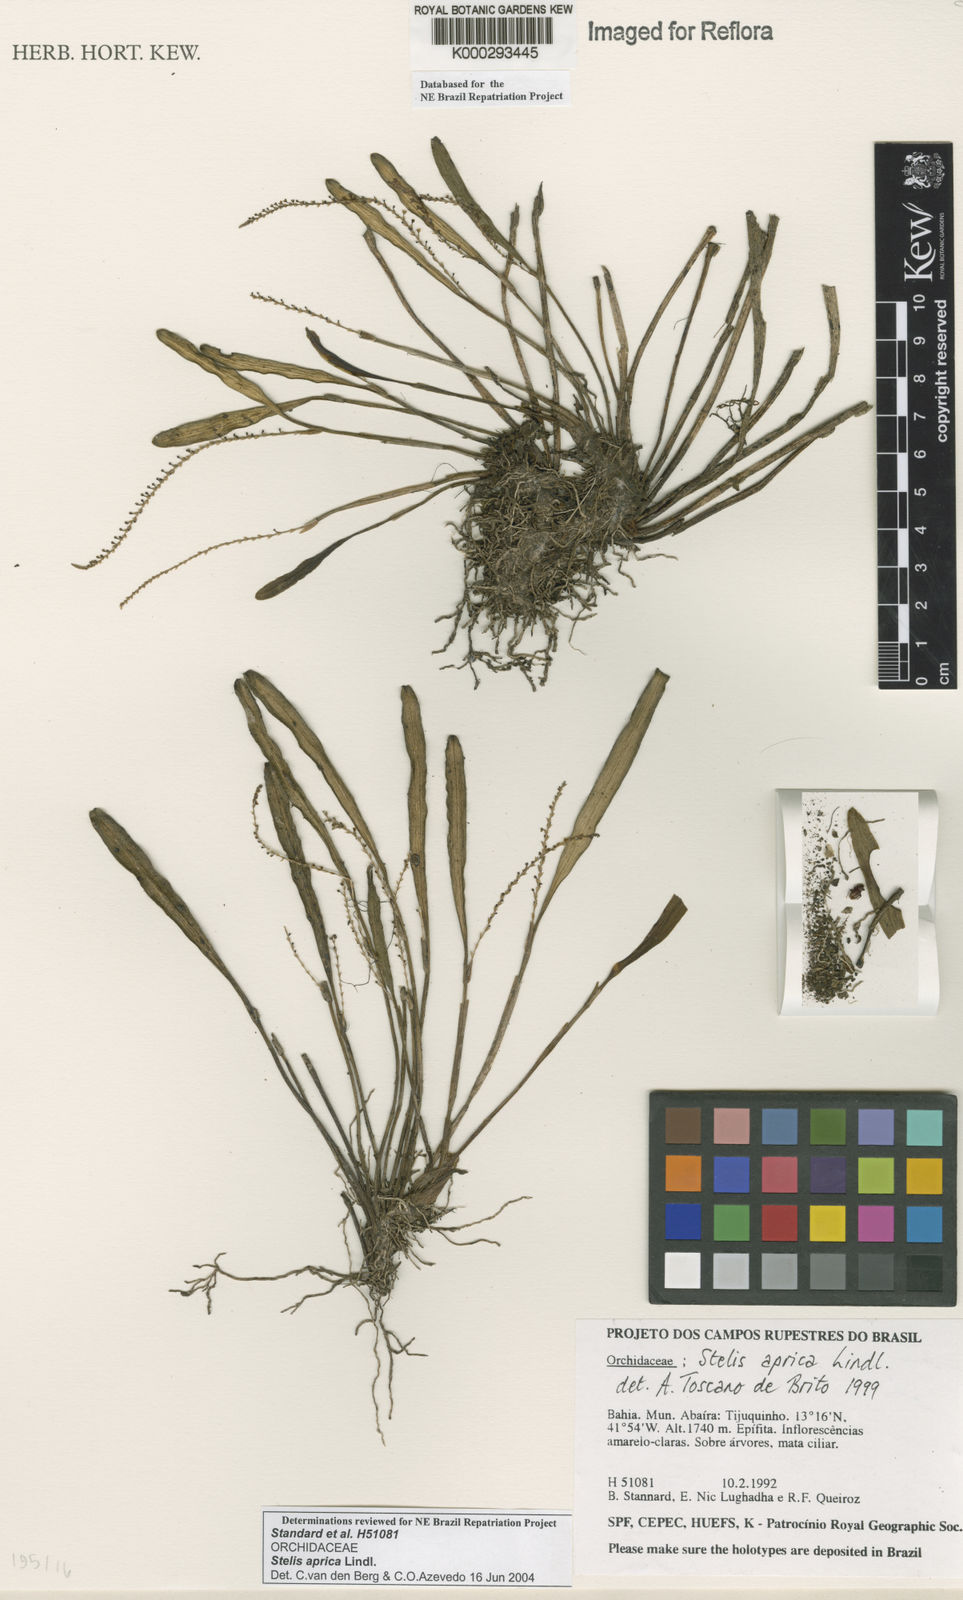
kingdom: Plantae
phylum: Tracheophyta
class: Liliopsida
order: Asparagales
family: Orchidaceae
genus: Stelis
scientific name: Stelis aprica
